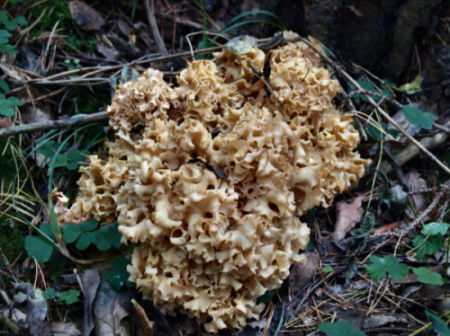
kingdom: Fungi
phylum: Basidiomycota
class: Agaricomycetes
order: Polyporales
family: Sparassidaceae
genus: Sparassis
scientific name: Sparassis crispa
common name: kruset blomkålssvamp
